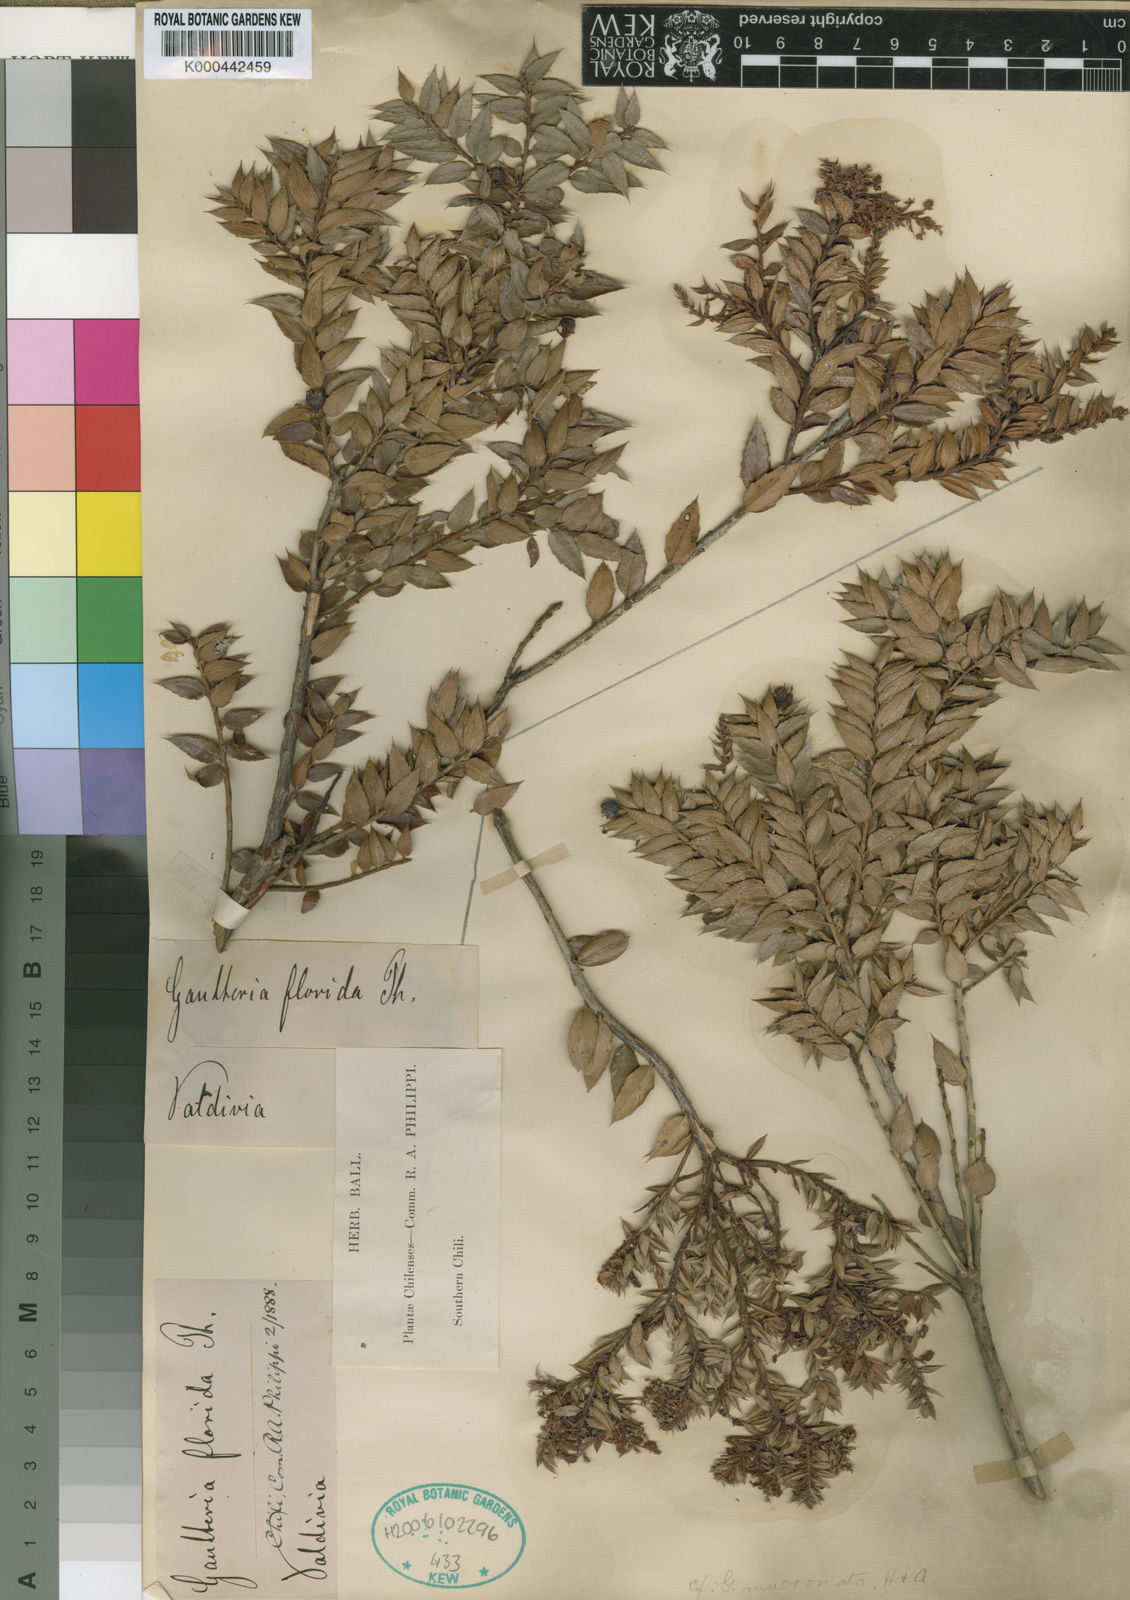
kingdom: Plantae
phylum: Tracheophyta
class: Magnoliopsida
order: Ericales
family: Ericaceae
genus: Gaultheria
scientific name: Gaultheria phillyreifolia
